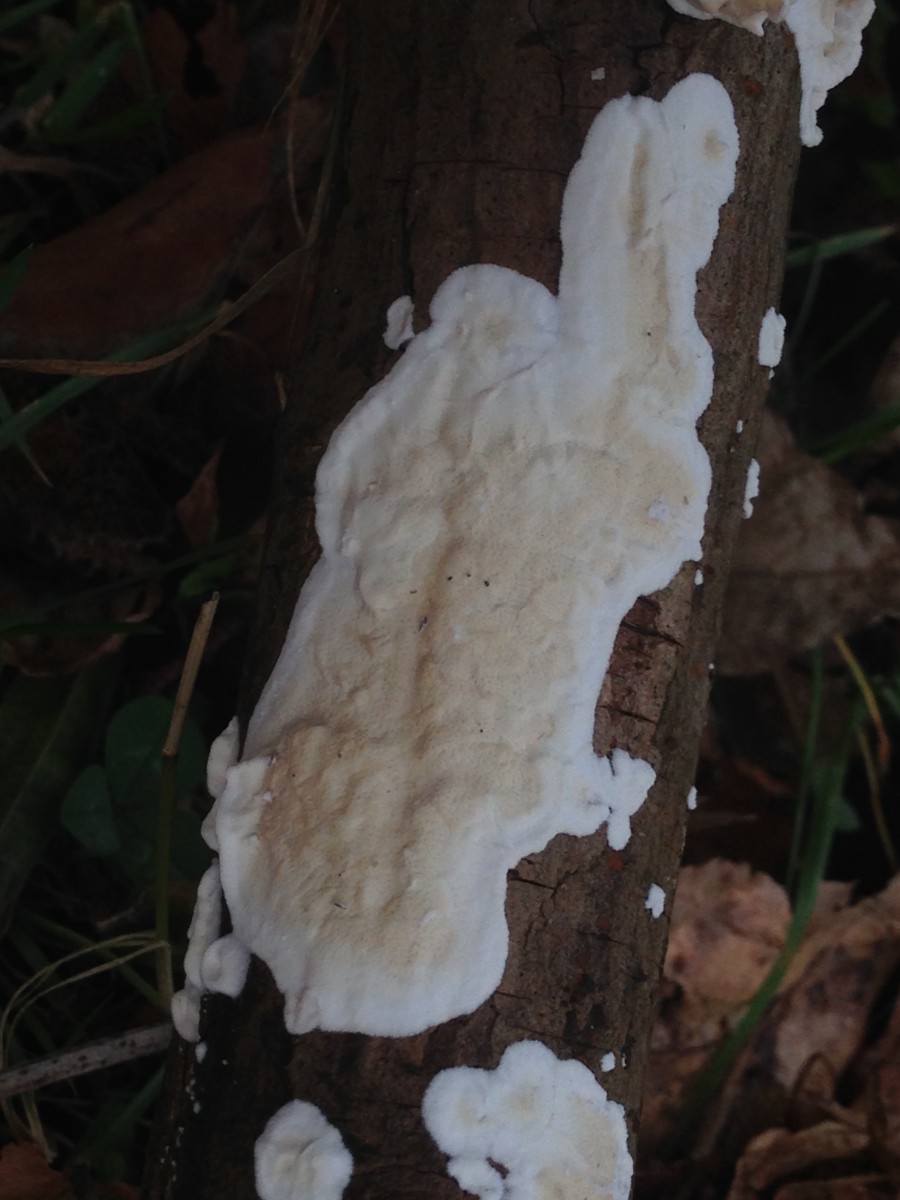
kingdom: Fungi
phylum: Basidiomycota
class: Agaricomycetes
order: Polyporales
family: Irpicaceae
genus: Byssomerulius
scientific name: Byssomerulius corium
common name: læder-åresvamp
